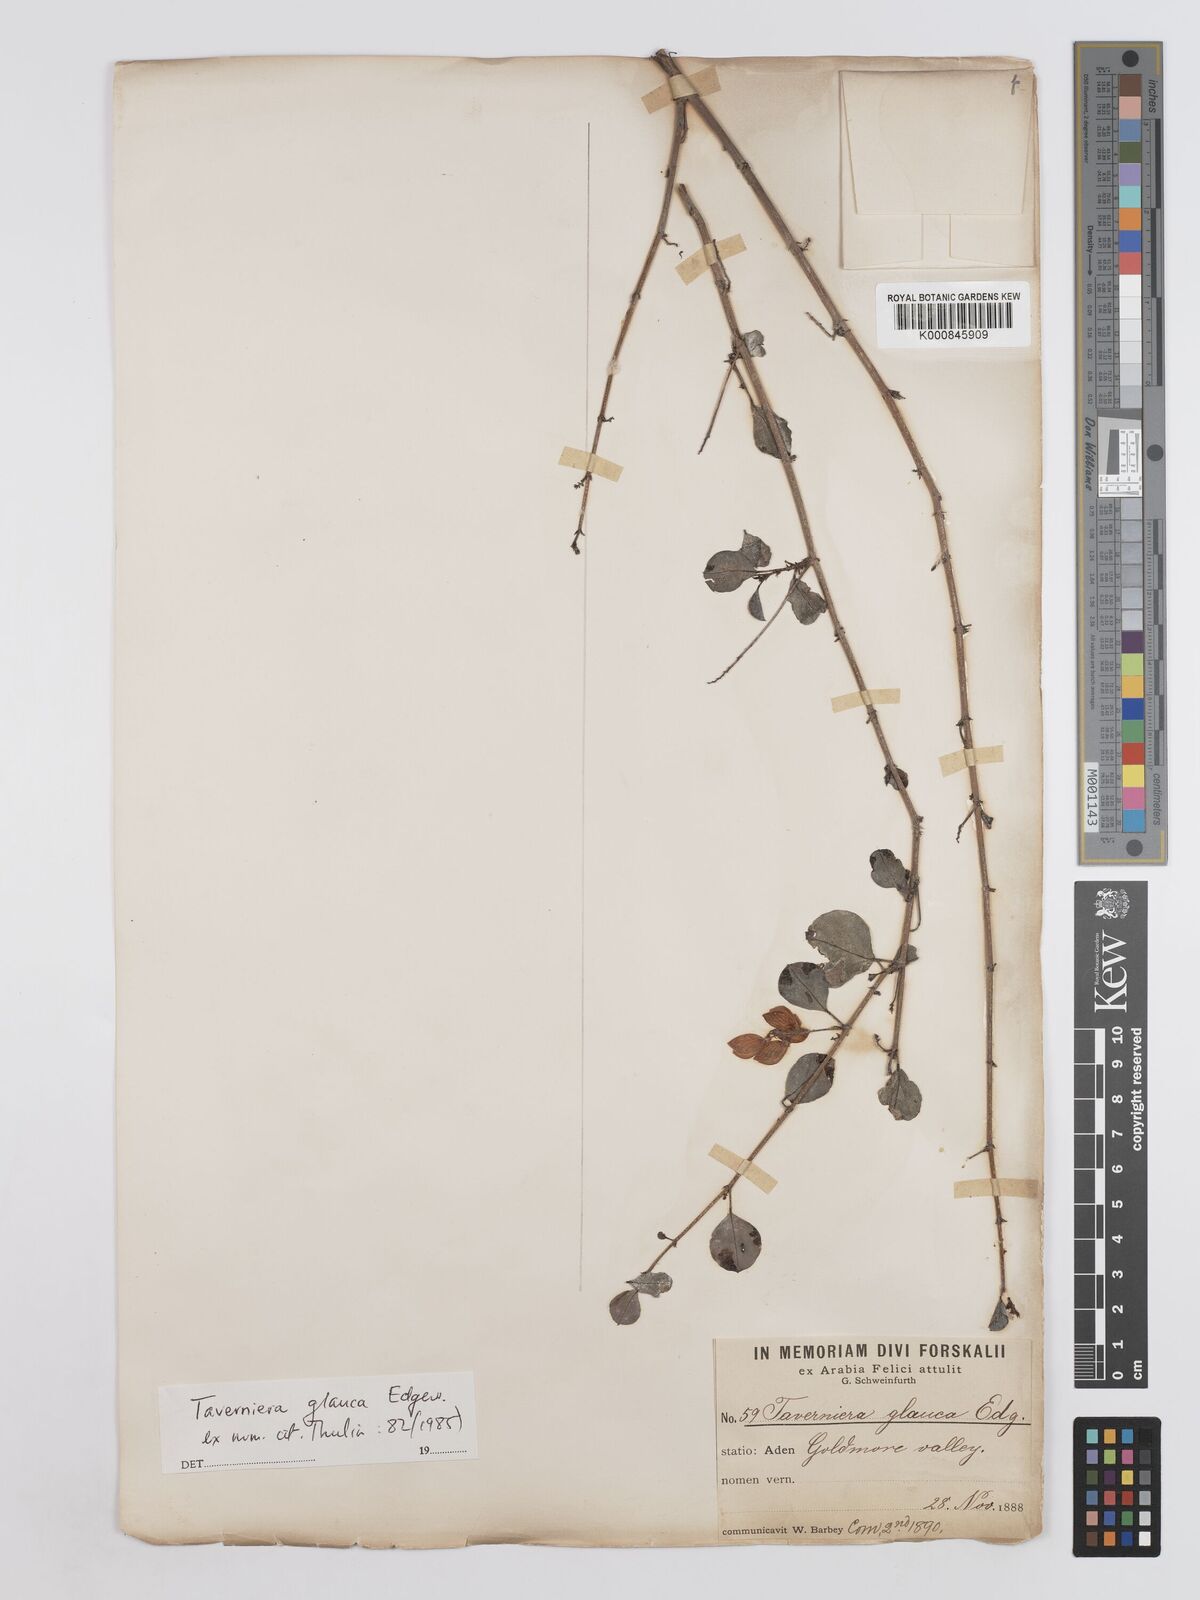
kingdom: Plantae
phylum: Tracheophyta
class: Magnoliopsida
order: Fabales
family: Fabaceae
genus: Taverniera
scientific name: Taverniera glauca
